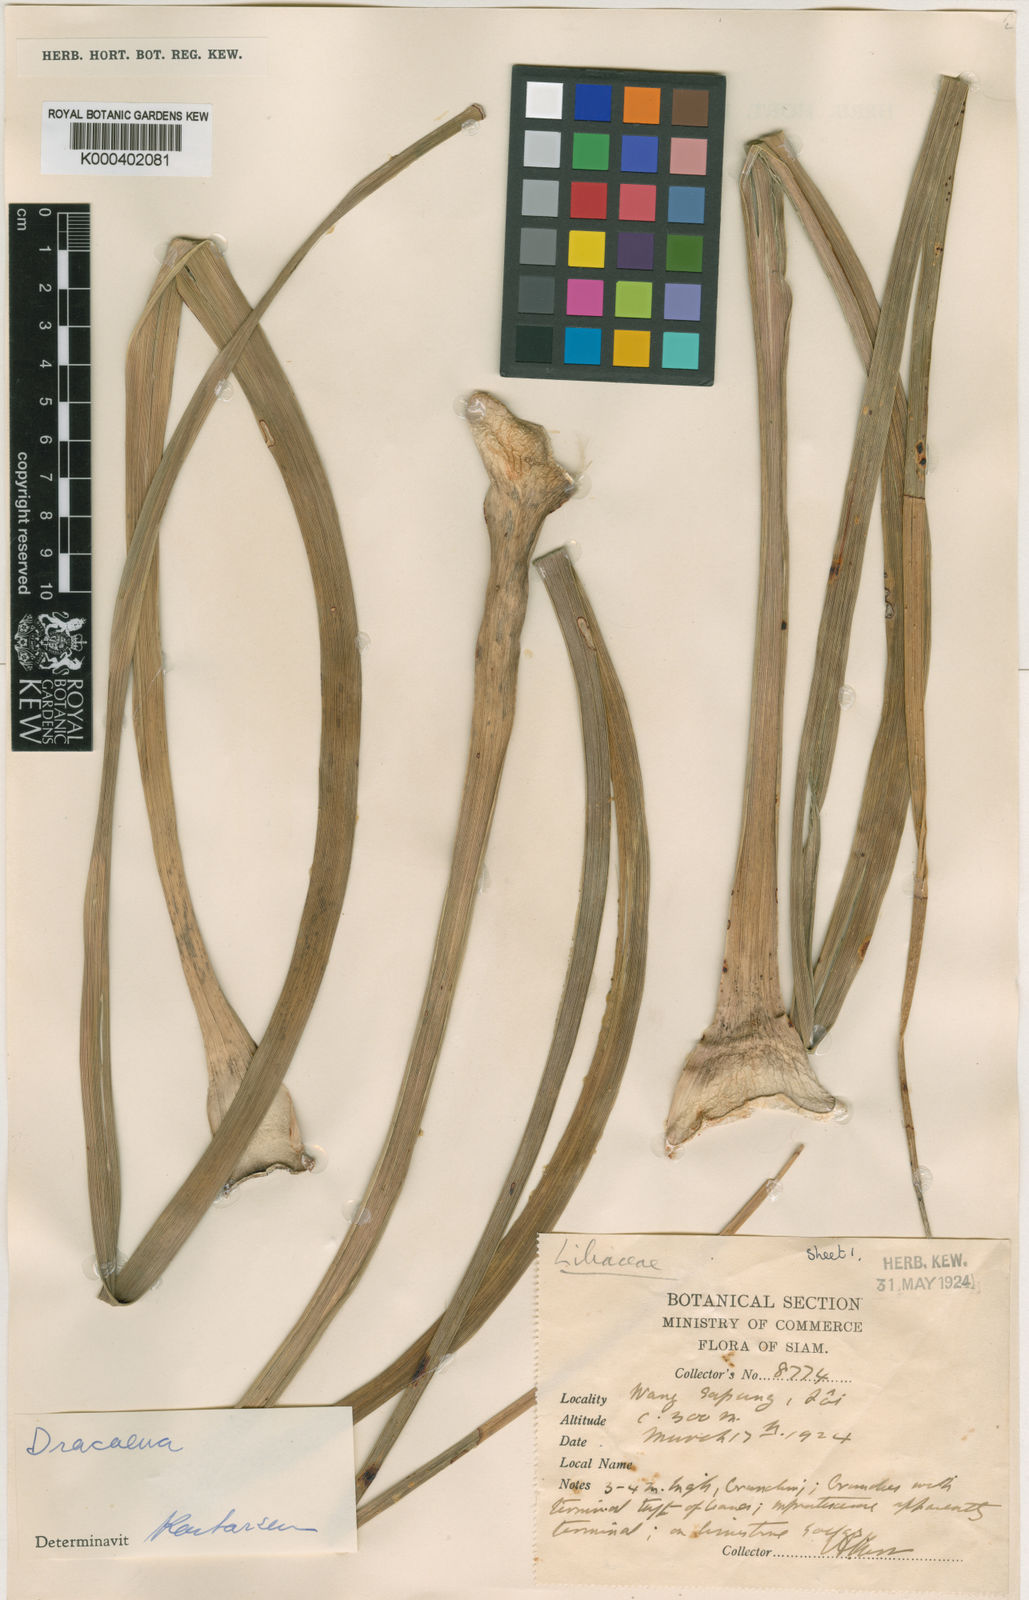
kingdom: Plantae
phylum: Tracheophyta
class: Liliopsida
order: Asparagales
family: Asparagaceae
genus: Dracaena
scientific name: Dracaena
